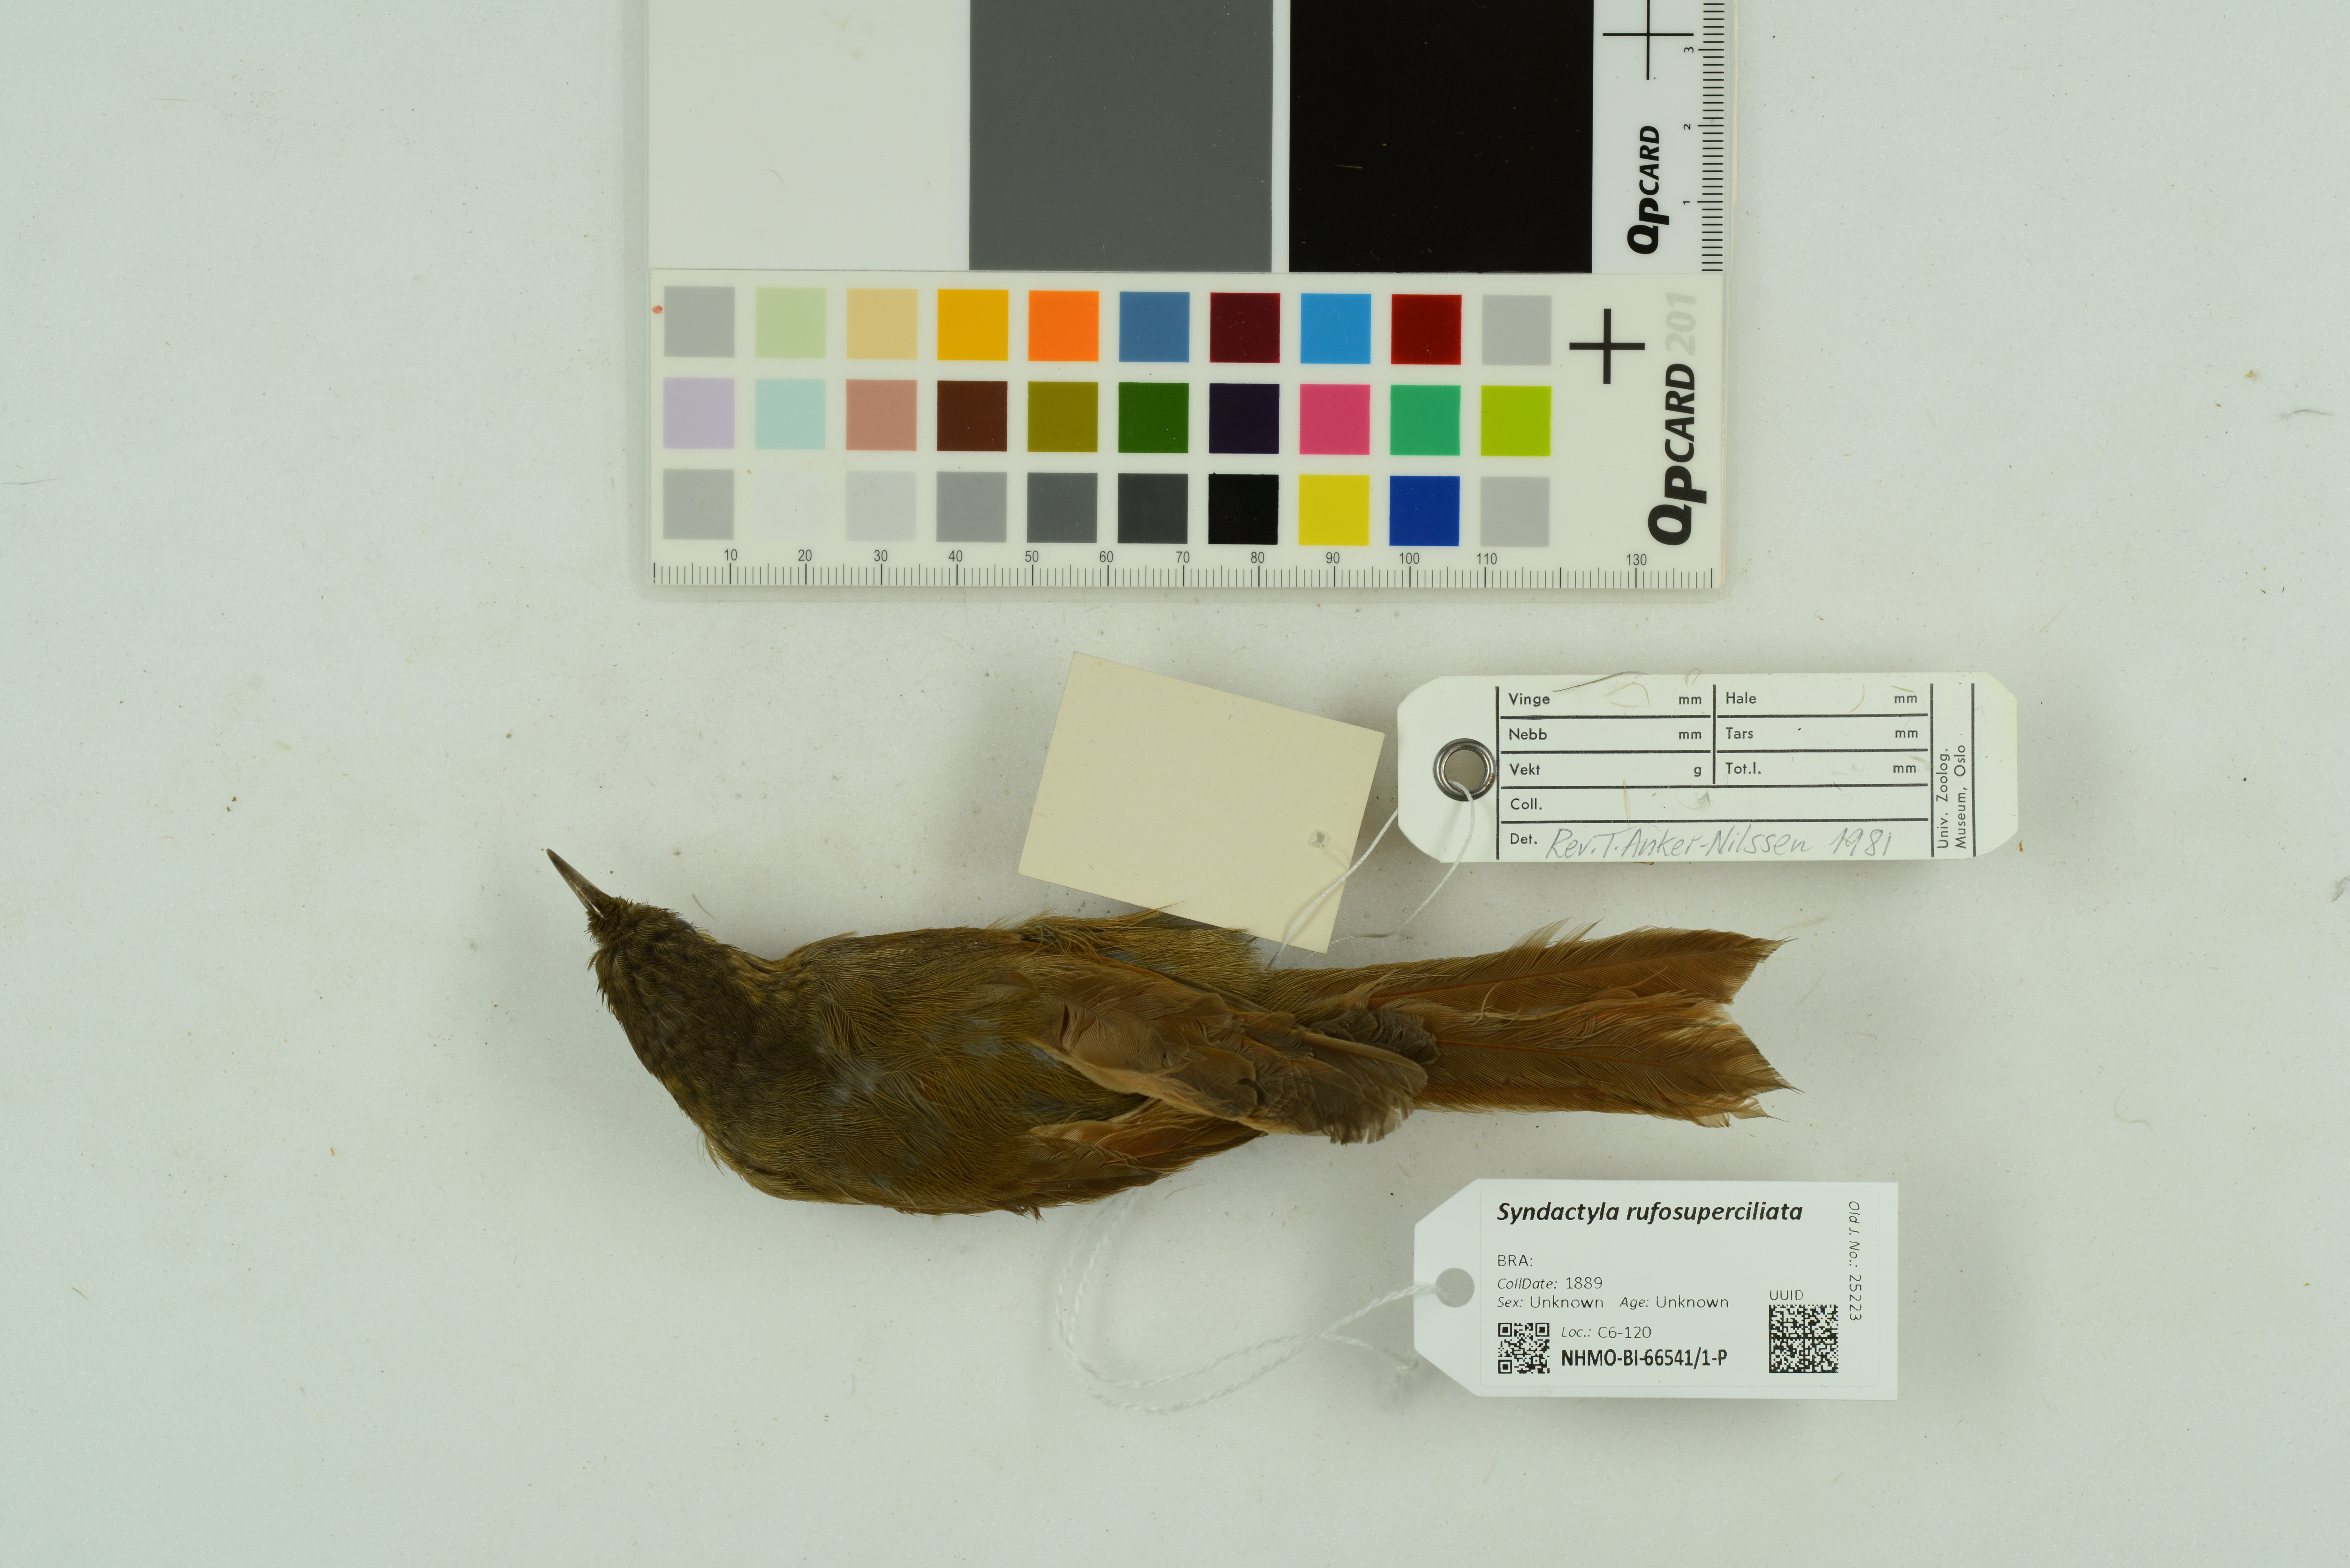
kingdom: Animalia
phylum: Chordata
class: Aves
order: Passeriformes
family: Furnariidae
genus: Syndactyla
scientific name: Syndactyla rufosuperciliata
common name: Buff-browed foliage-gleaner
